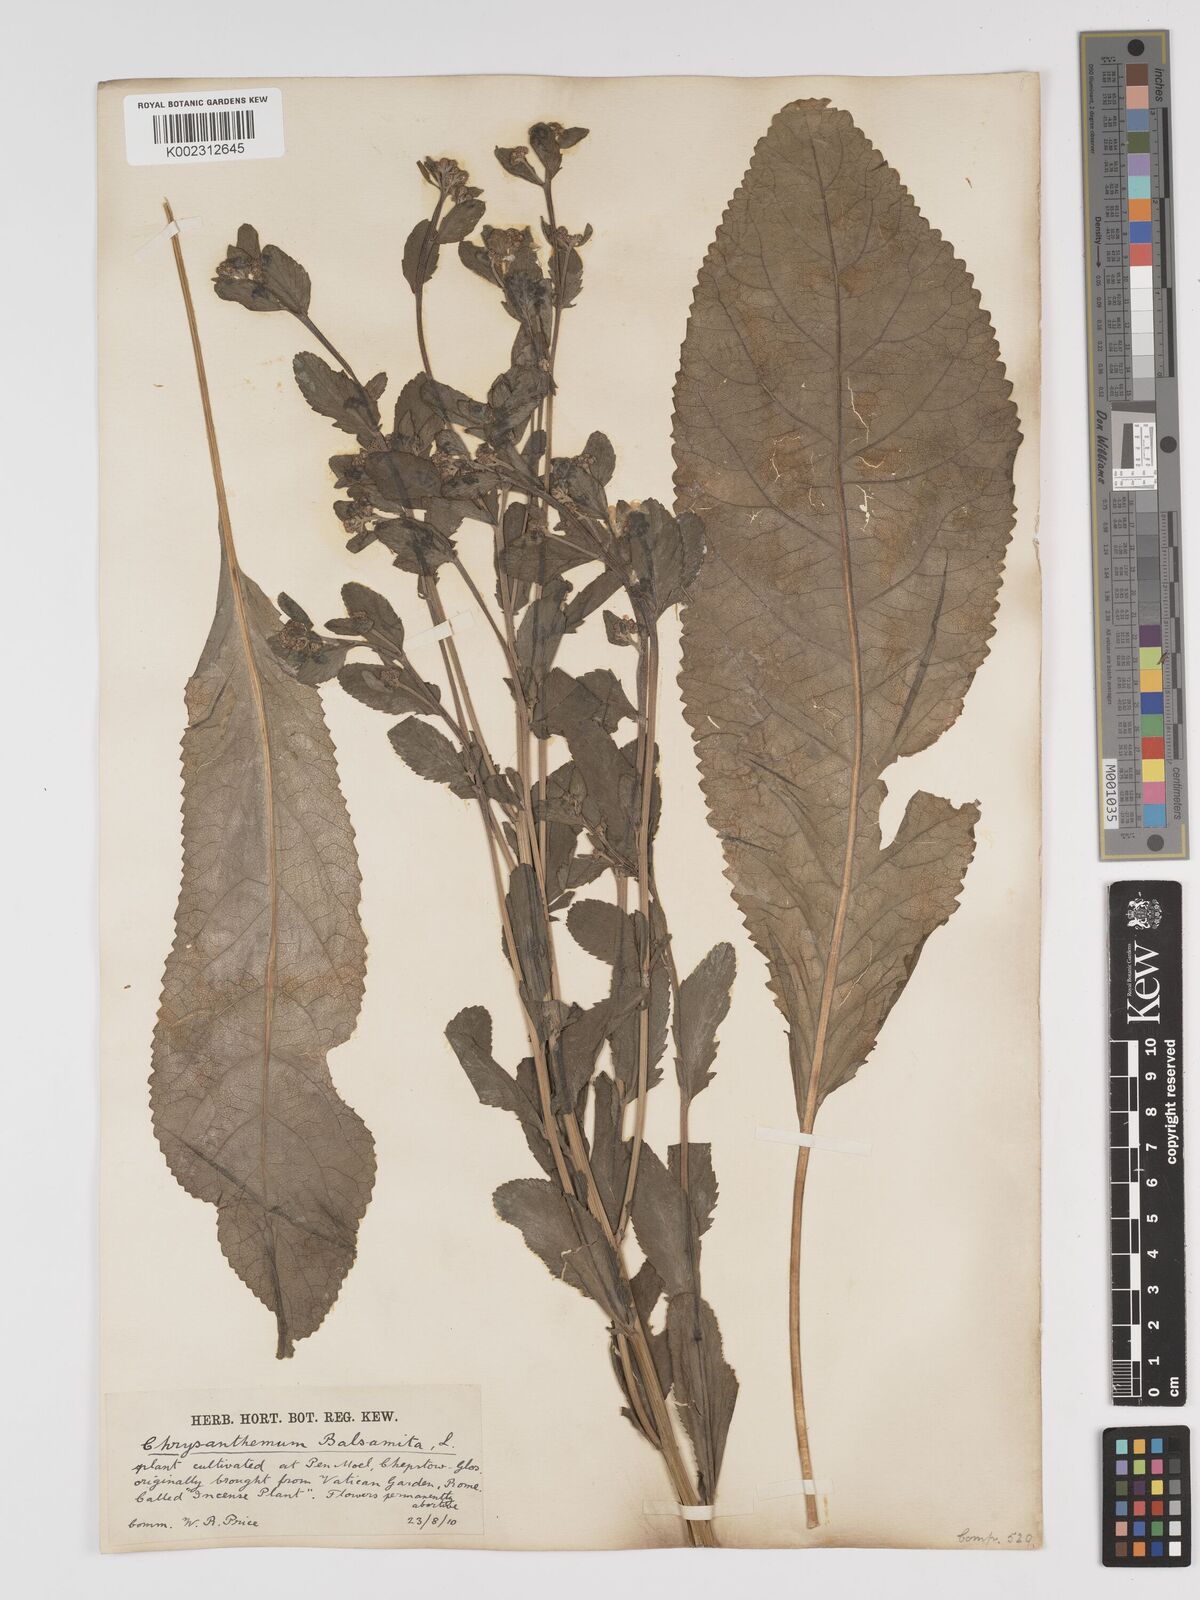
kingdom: Plantae
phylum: Tracheophyta
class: Magnoliopsida
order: Asterales
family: Asteraceae
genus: Tanacetum
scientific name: Tanacetum balsamita
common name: Costmary
